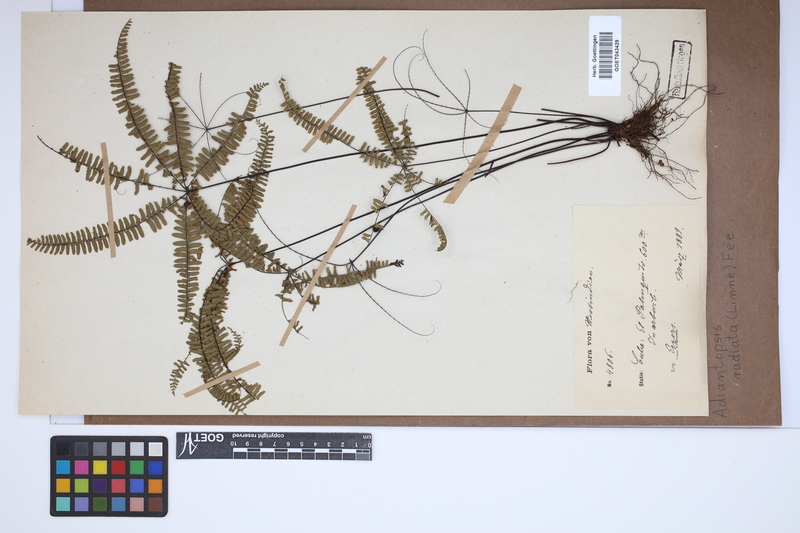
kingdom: Plantae
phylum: Tracheophyta
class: Polypodiopsida
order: Polypodiales
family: Pteridaceae
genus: Adiantopsis
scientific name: Adiantopsis radiata
